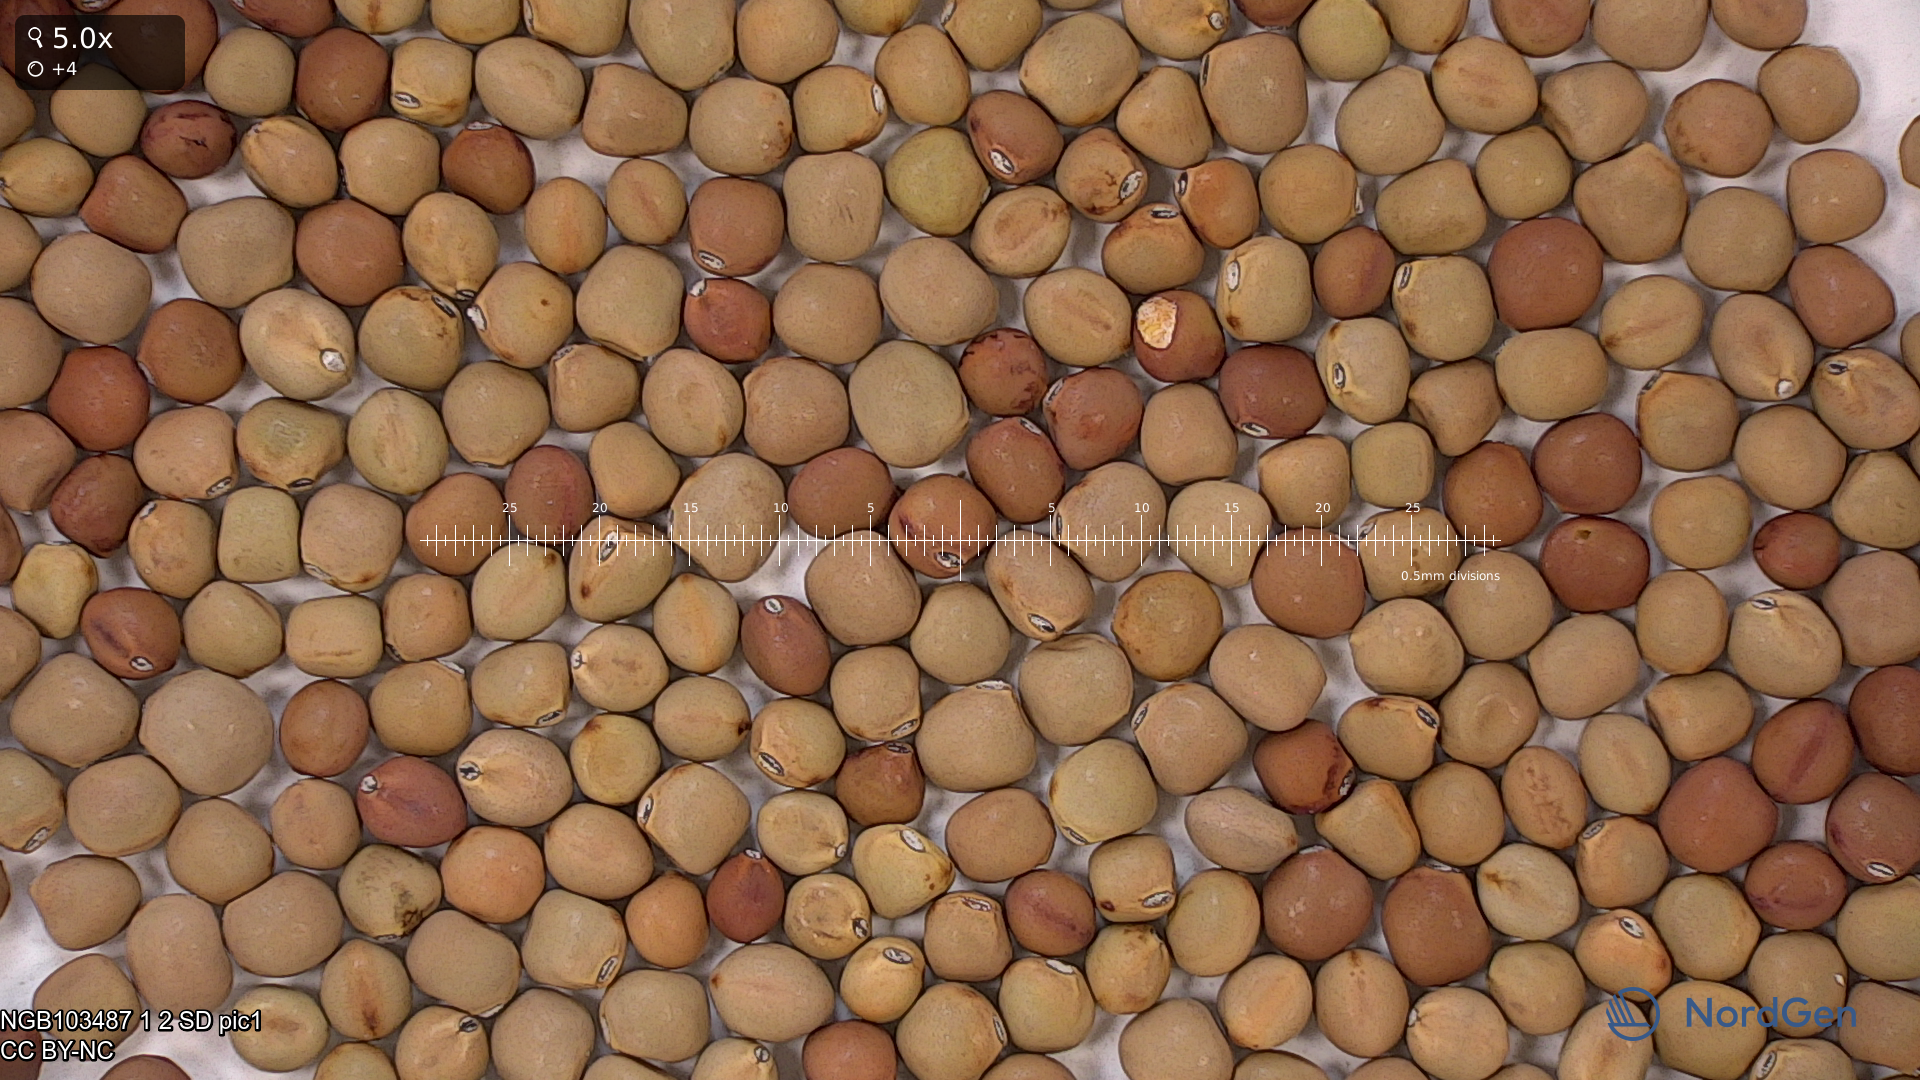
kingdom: Plantae
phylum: Tracheophyta
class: Magnoliopsida
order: Fabales
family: Fabaceae
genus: Lathyrus
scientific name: Lathyrus oleraceus
